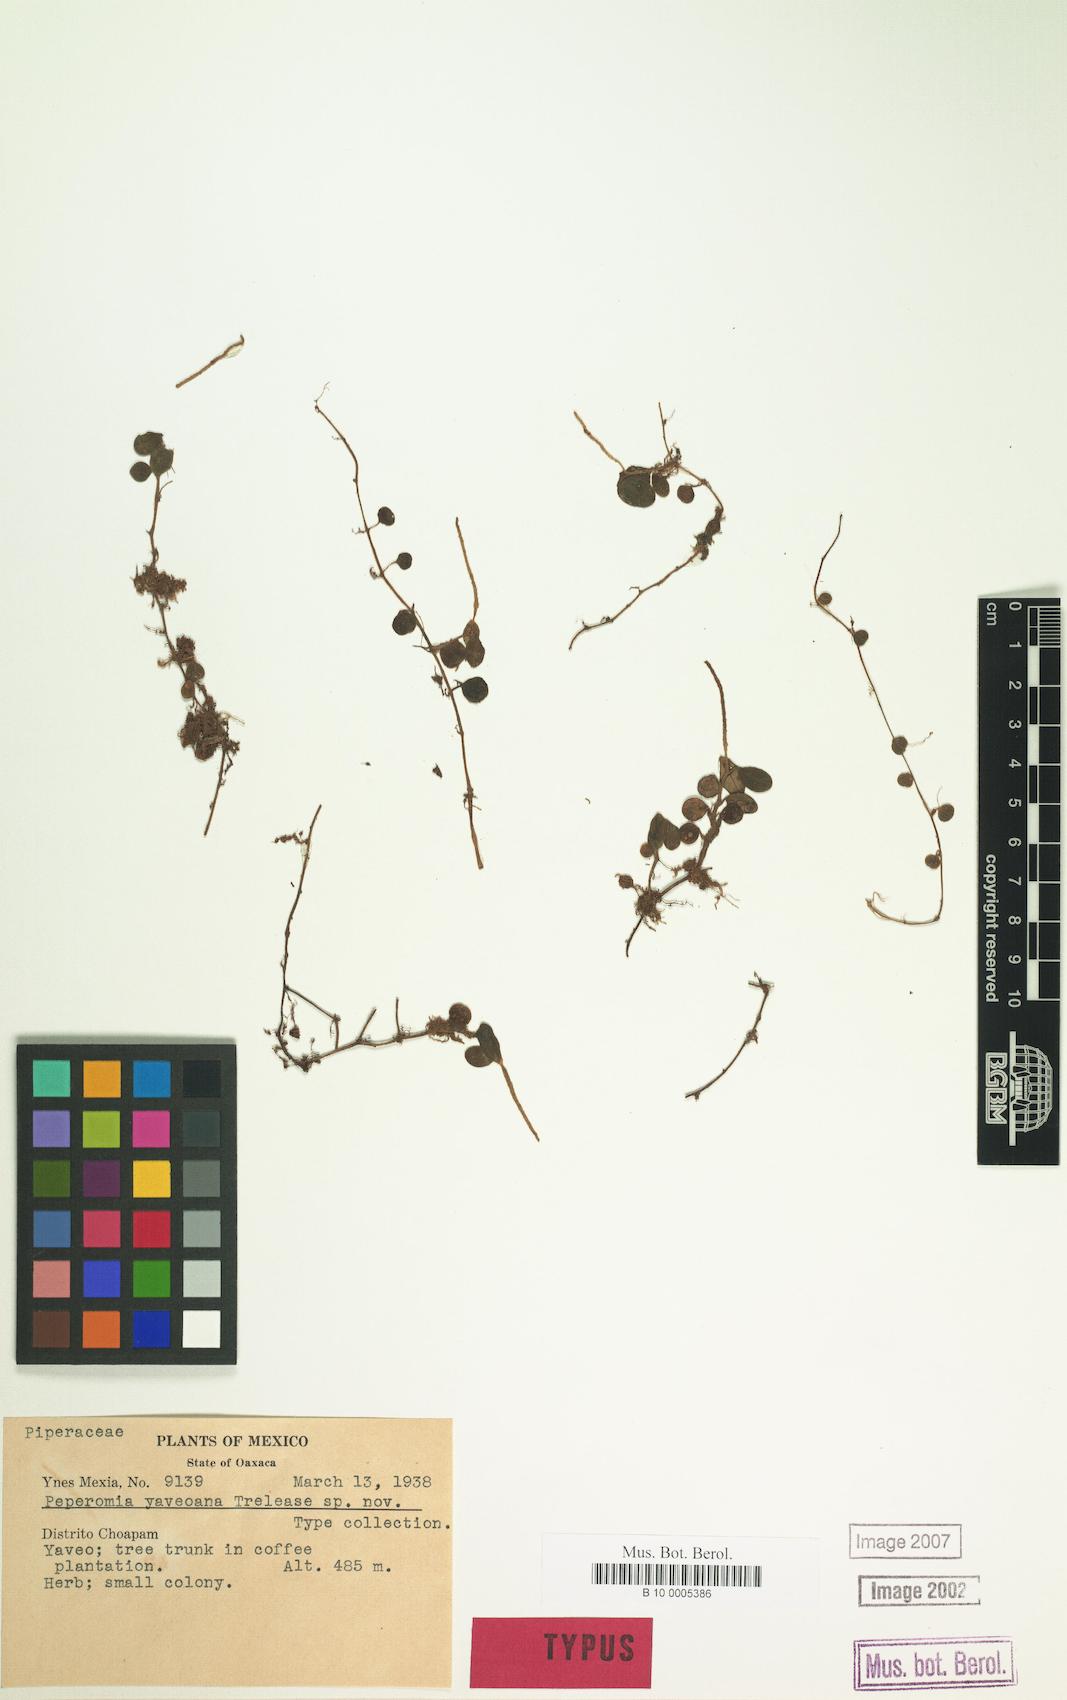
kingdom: Plantae
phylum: Tracheophyta
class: Magnoliopsida
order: Piperales
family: Piperaceae
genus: Peperomia
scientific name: Peperomia
